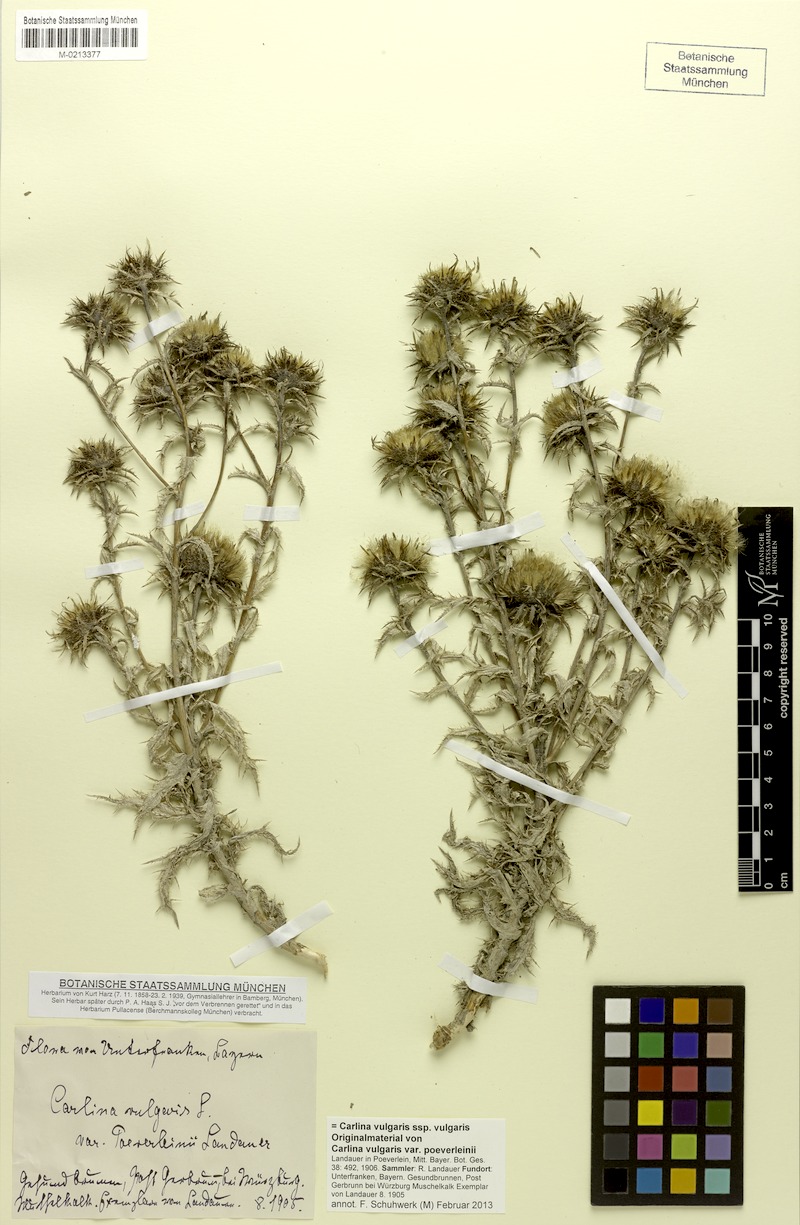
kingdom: Plantae
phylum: Tracheophyta
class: Magnoliopsida
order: Asterales
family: Asteraceae
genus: Carlina
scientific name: Carlina vulgaris
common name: Carline thistle
